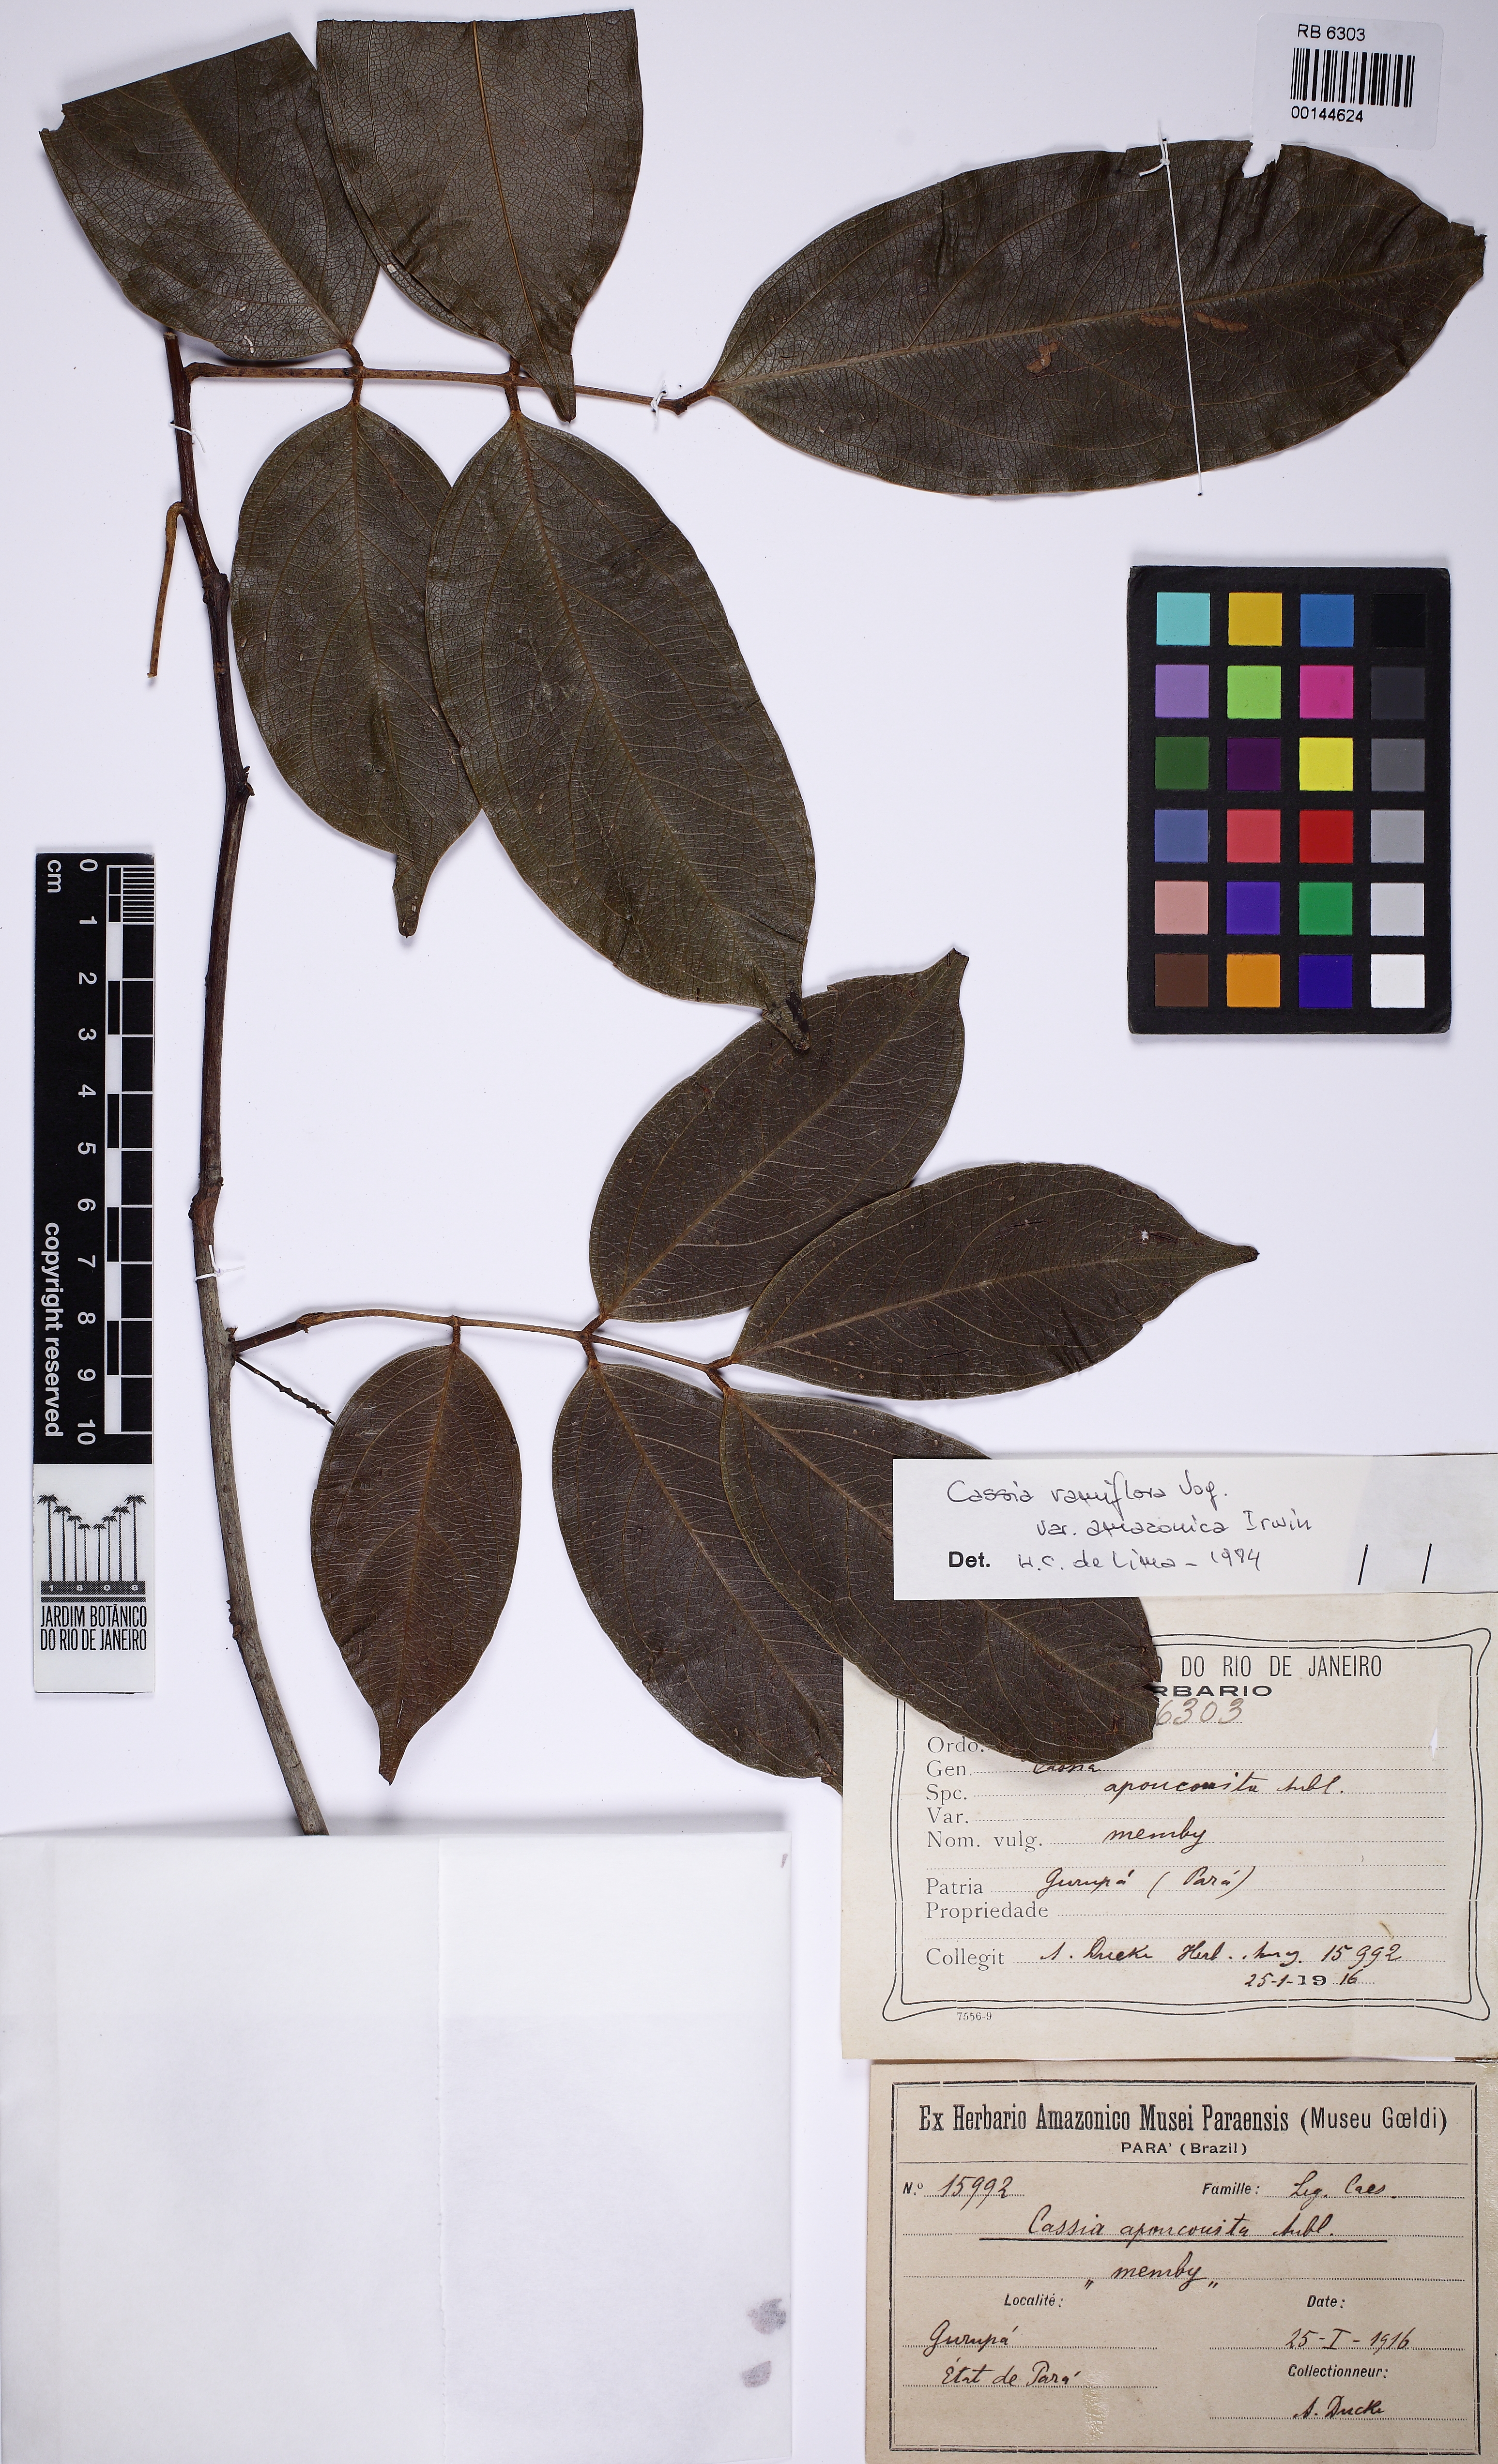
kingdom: Plantae
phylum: Tracheophyta
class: Magnoliopsida
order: Fabales
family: Fabaceae
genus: Chamaecrista
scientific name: Chamaecrista ensiformis
